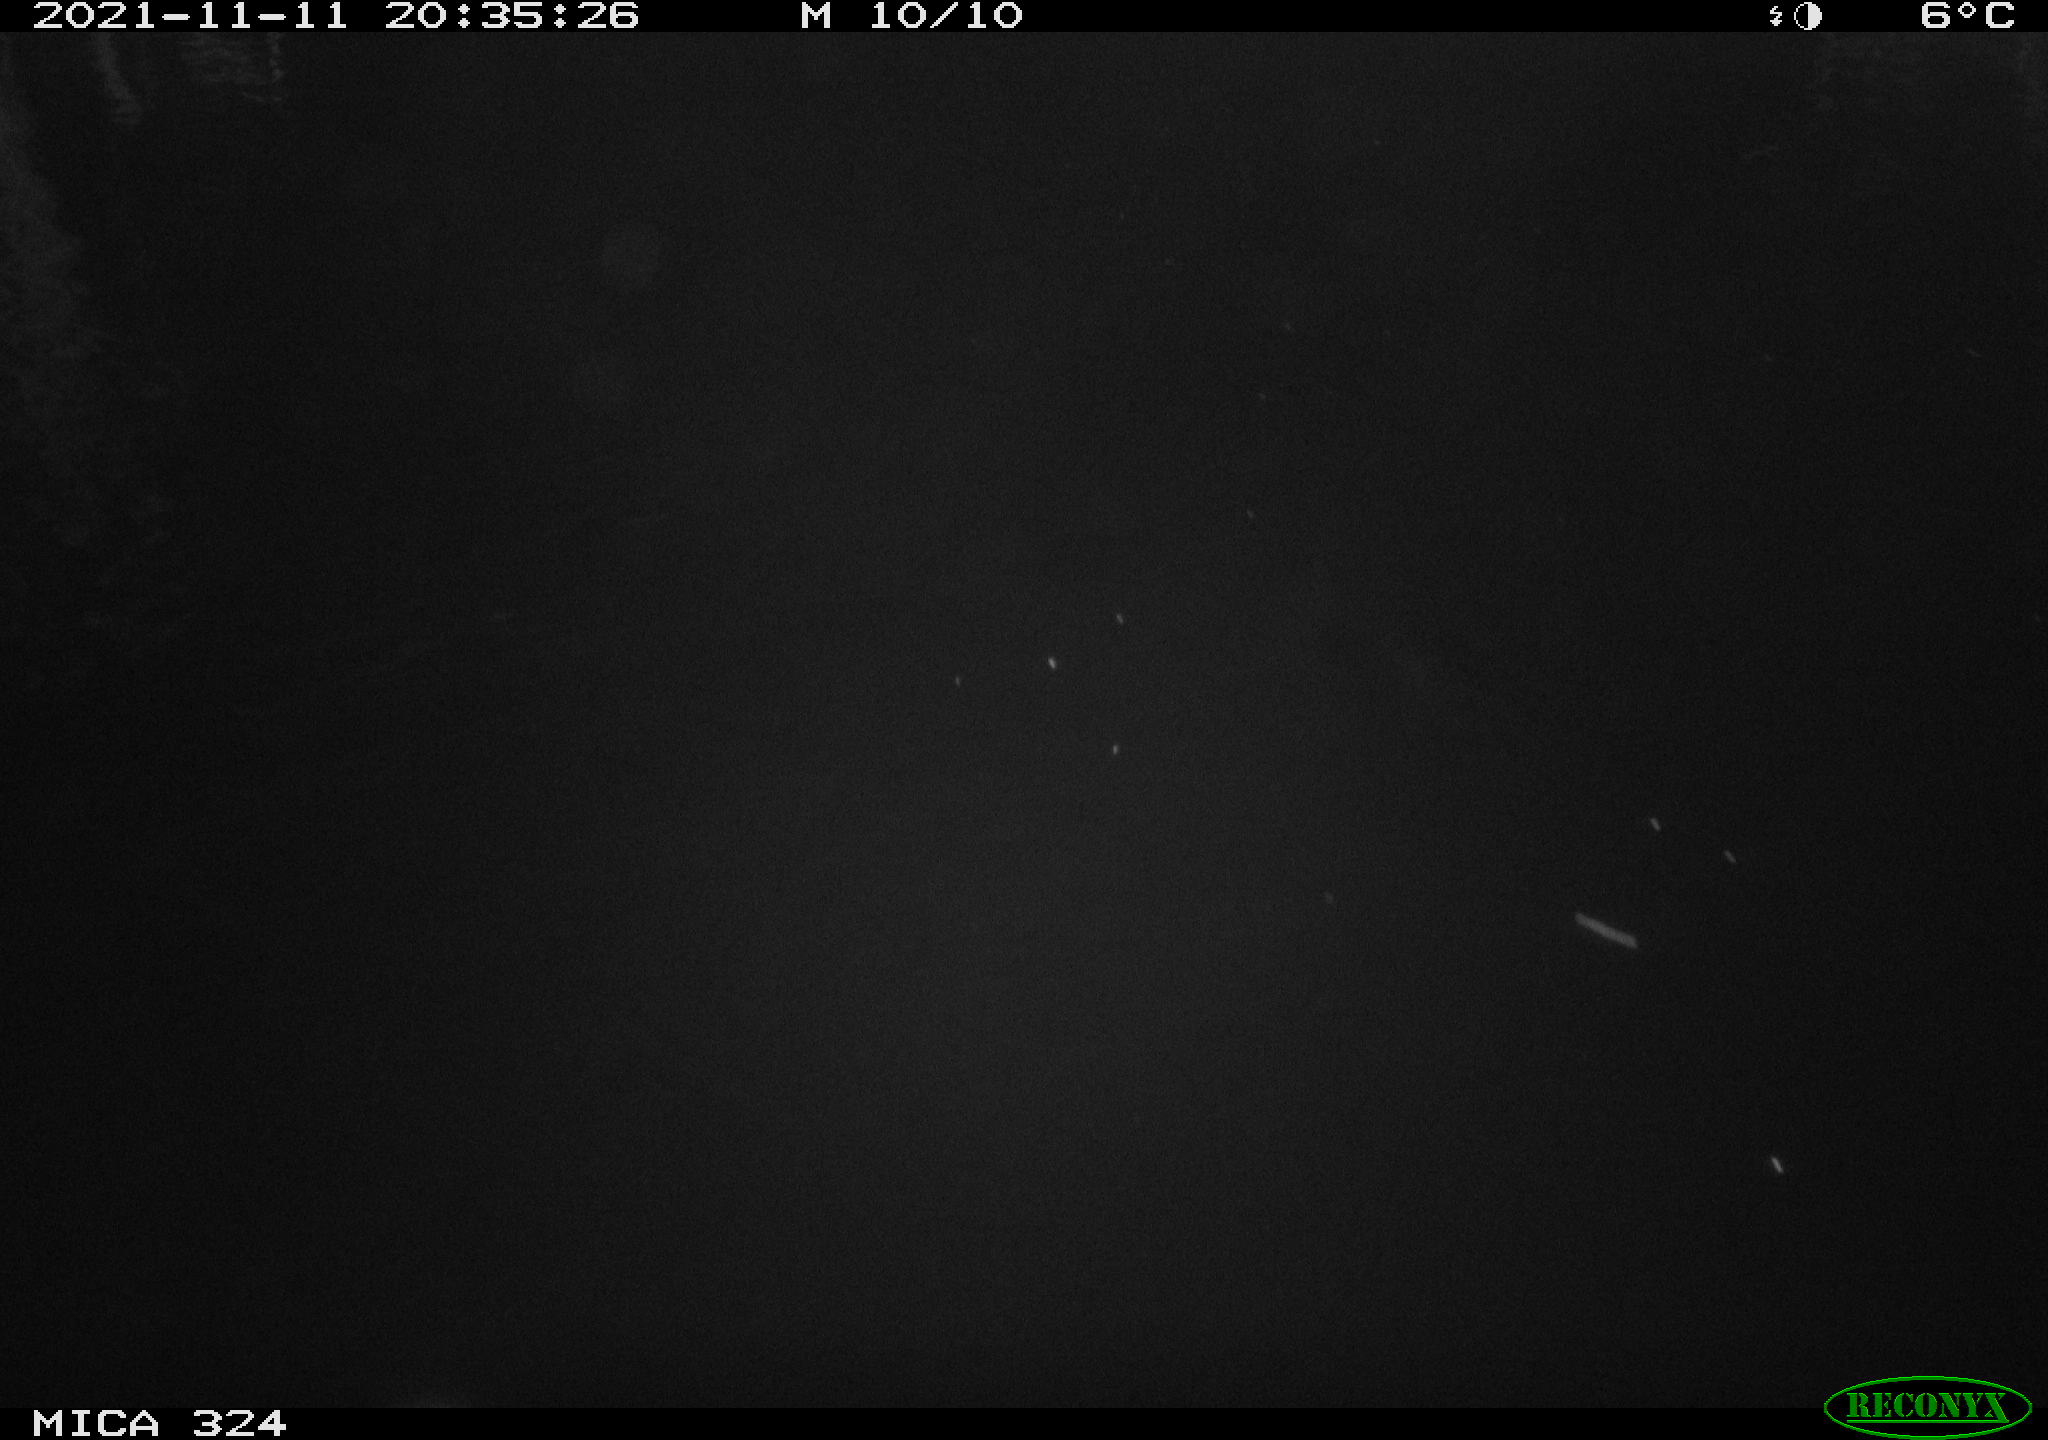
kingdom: Animalia
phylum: Chordata
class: Mammalia
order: Rodentia
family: Cricetidae
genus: Ondatra
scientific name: Ondatra zibethicus
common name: Muskrat
